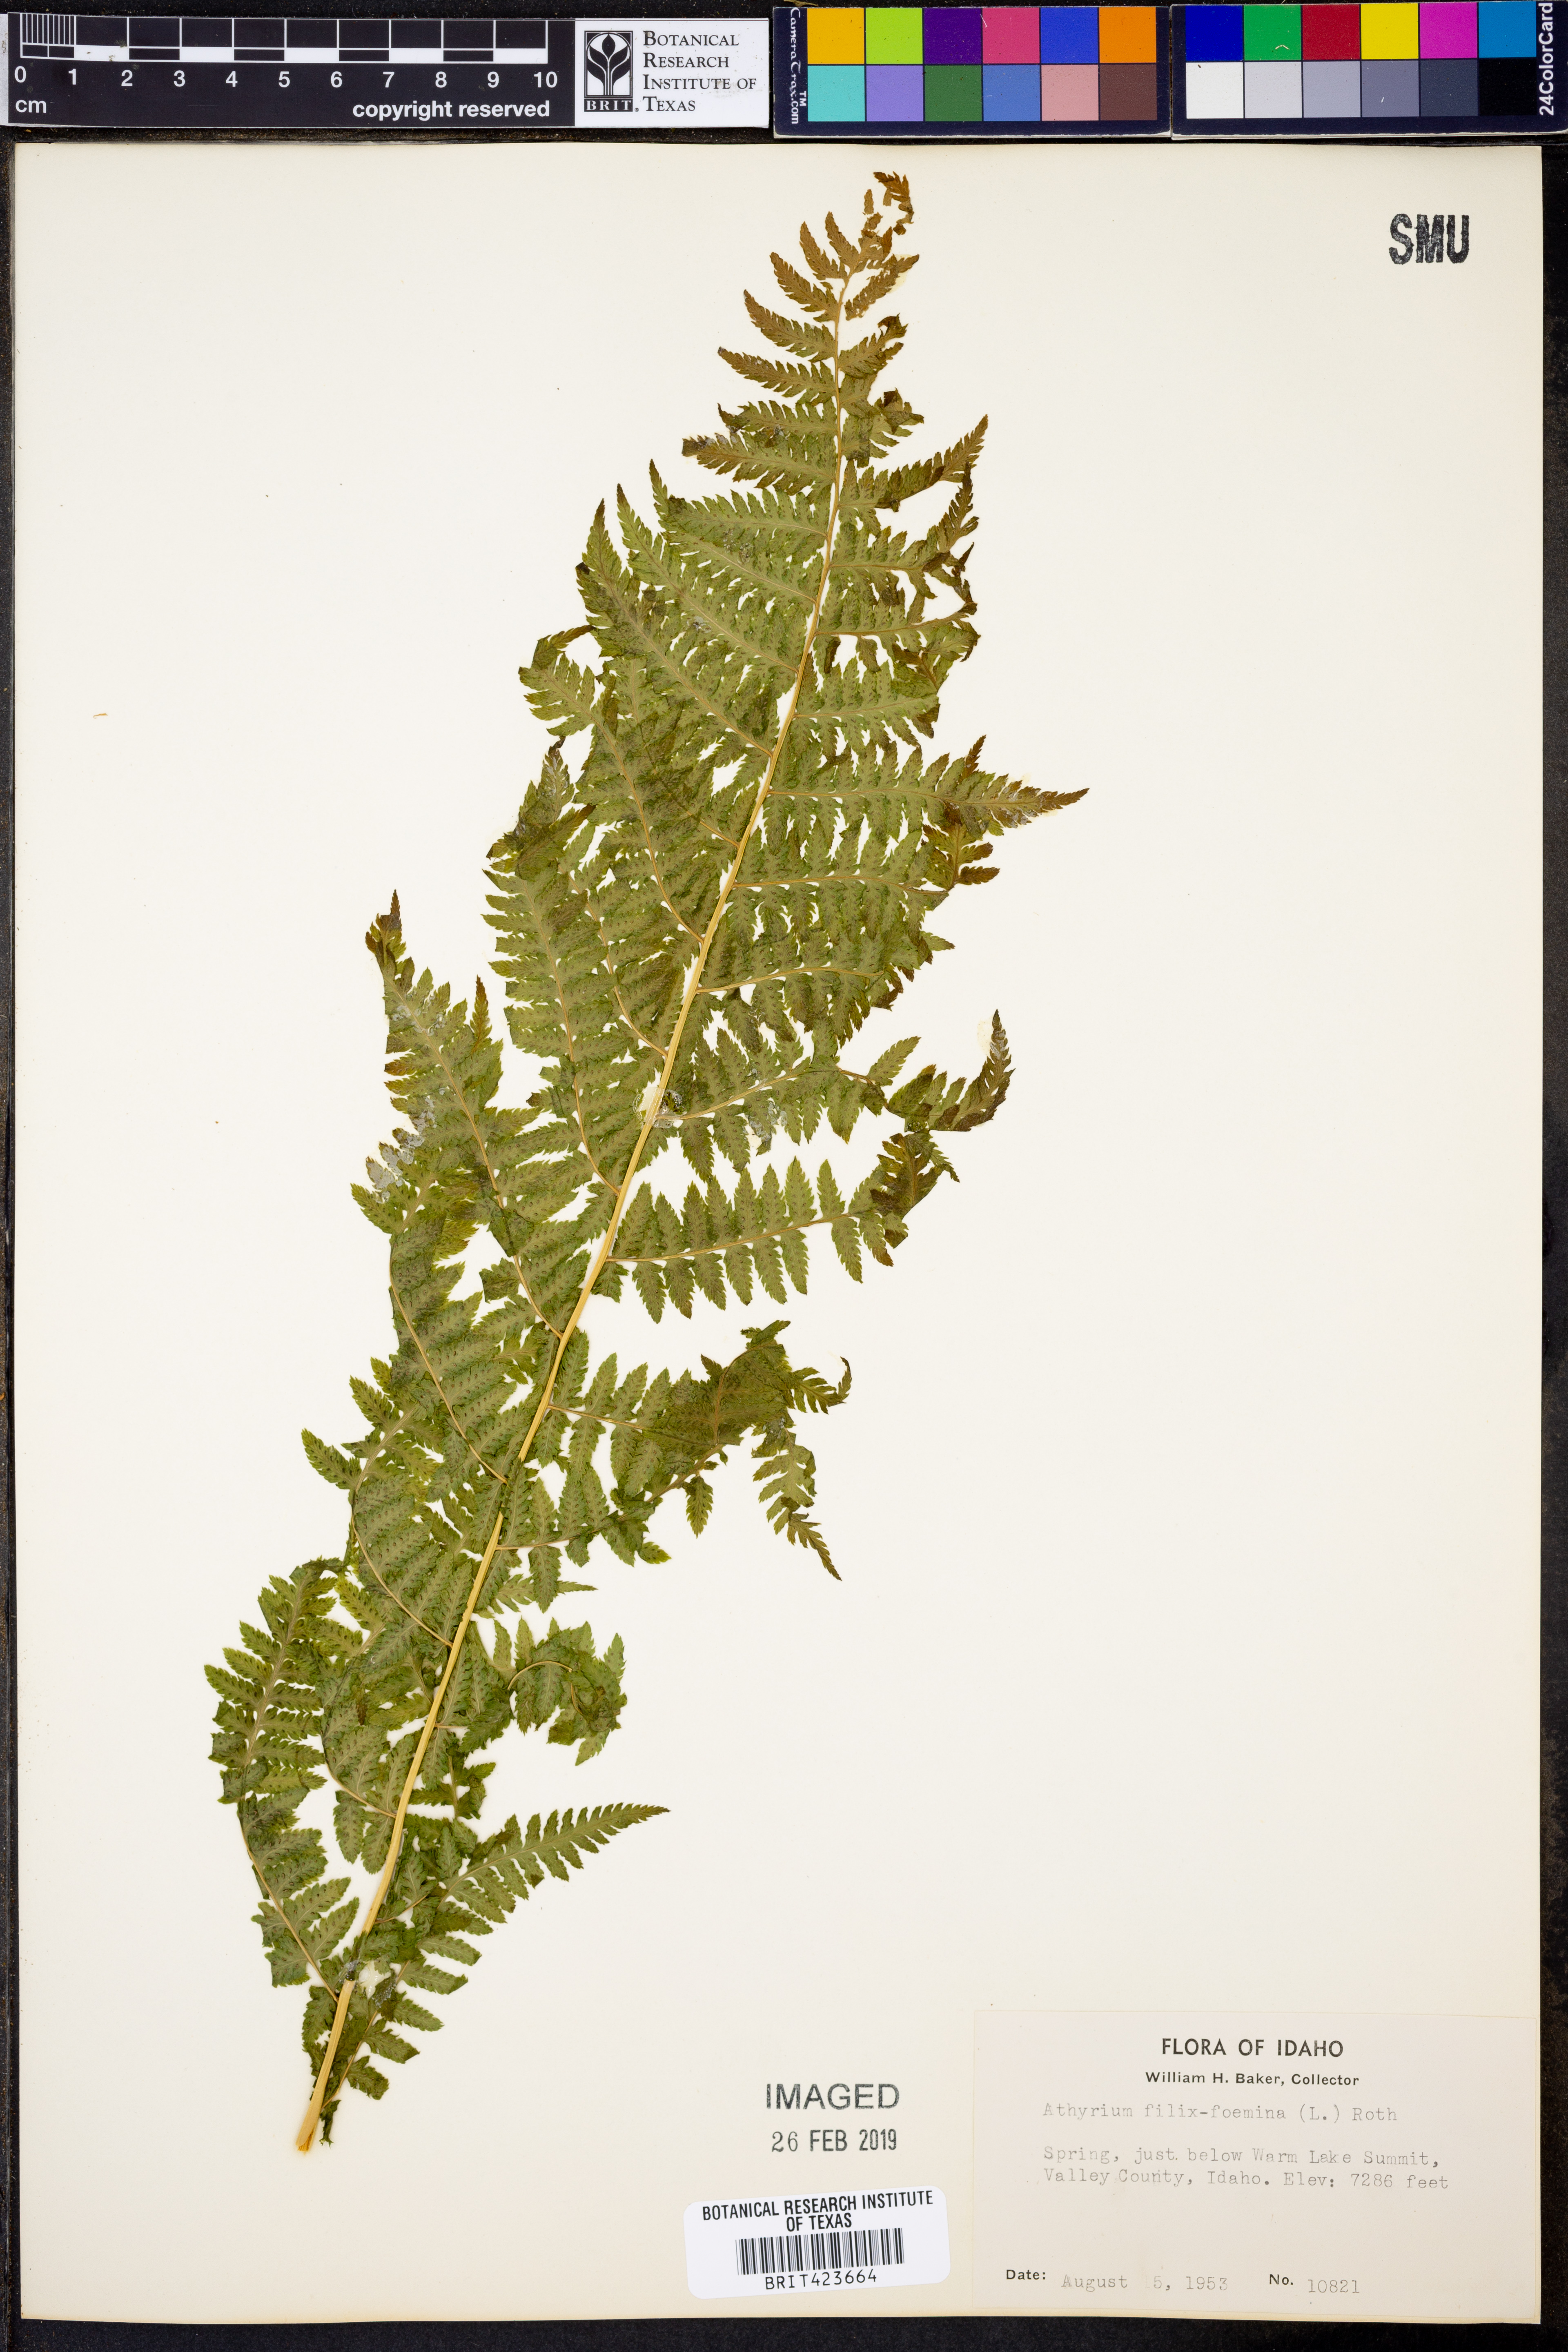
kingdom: Plantae
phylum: Tracheophyta
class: Polypodiopsida
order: Polypodiales
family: Athyriaceae
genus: Athyrium
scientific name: Athyrium filix-femina
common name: Lady fern
